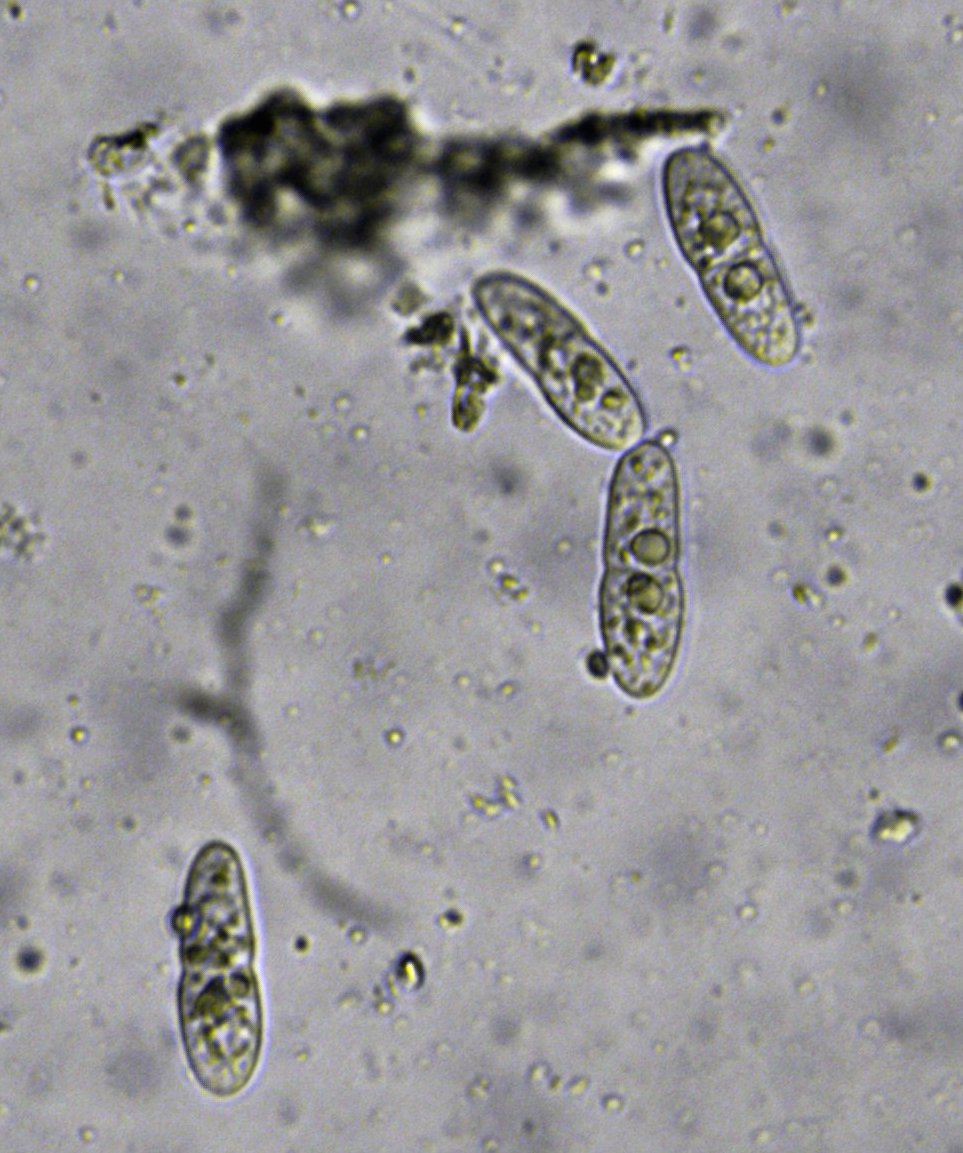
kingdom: Fungi
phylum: Ascomycota
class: Dothideomycetes
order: Dothideales
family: Dothideaceae
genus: Scirrhia
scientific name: Scirrhia rimosa
